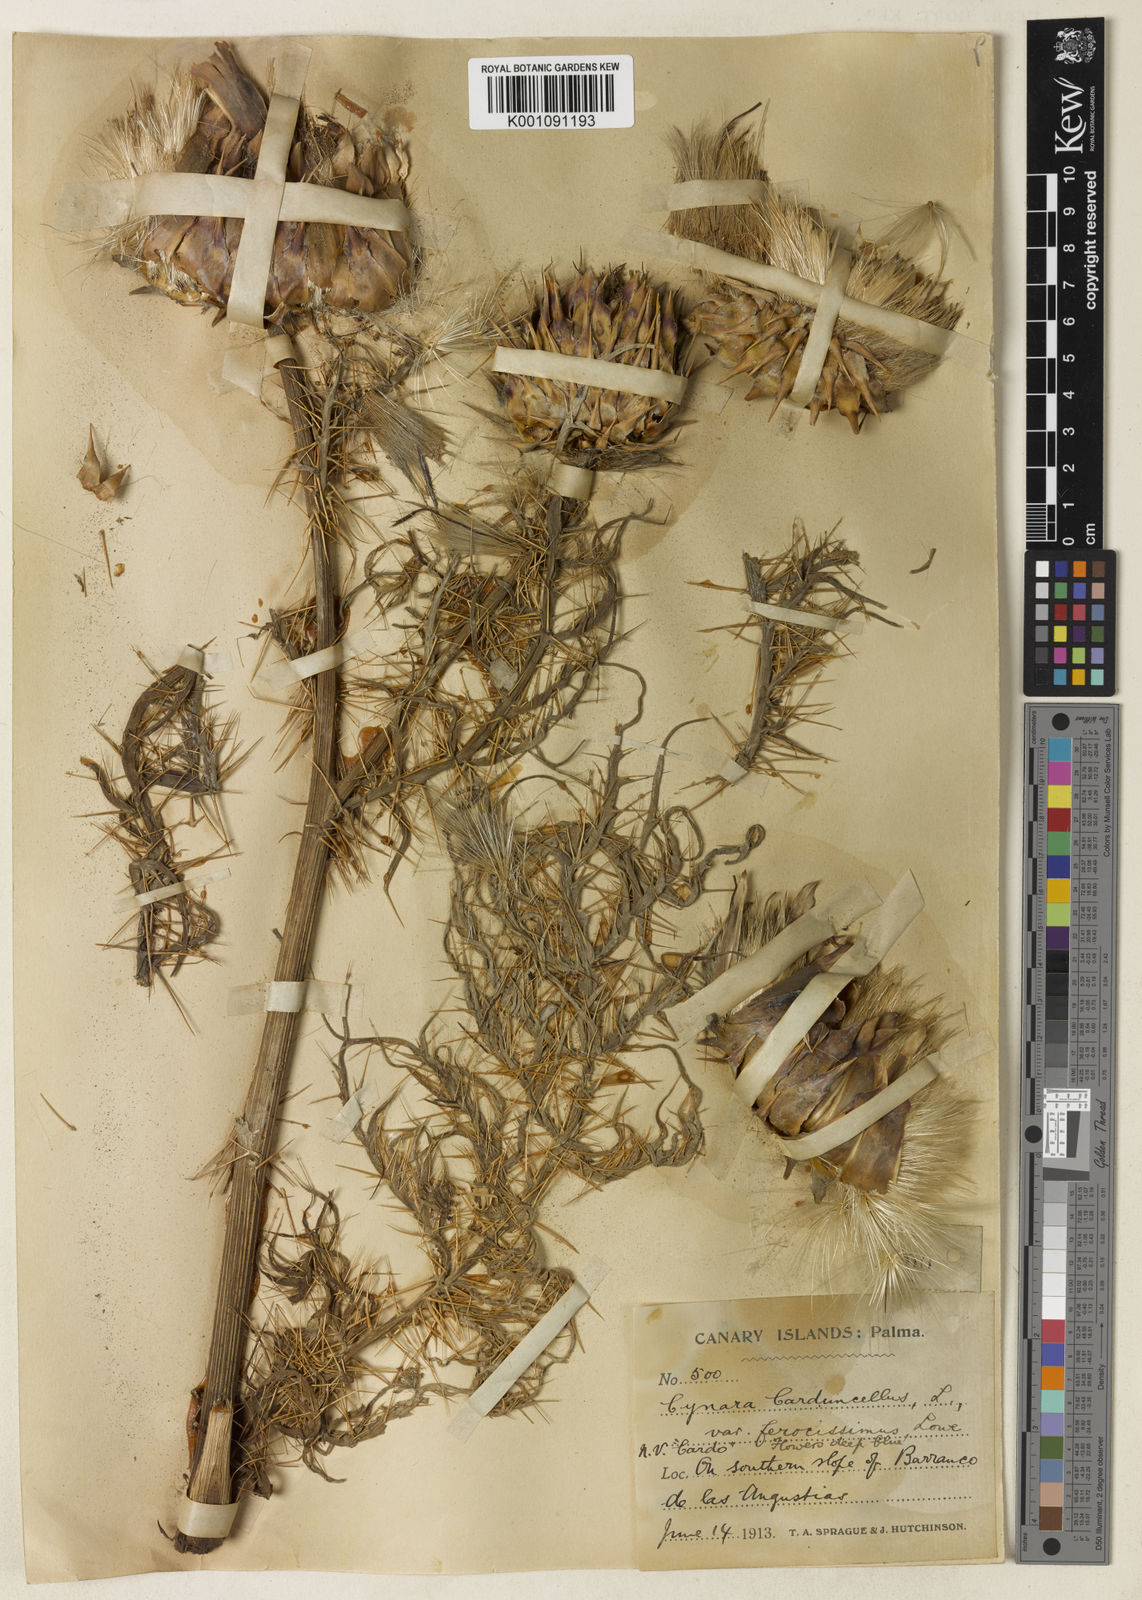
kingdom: Plantae
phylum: Tracheophyta
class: Magnoliopsida
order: Asterales
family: Asteraceae
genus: Cynara
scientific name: Cynara cardunculus
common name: Globe artichoke
